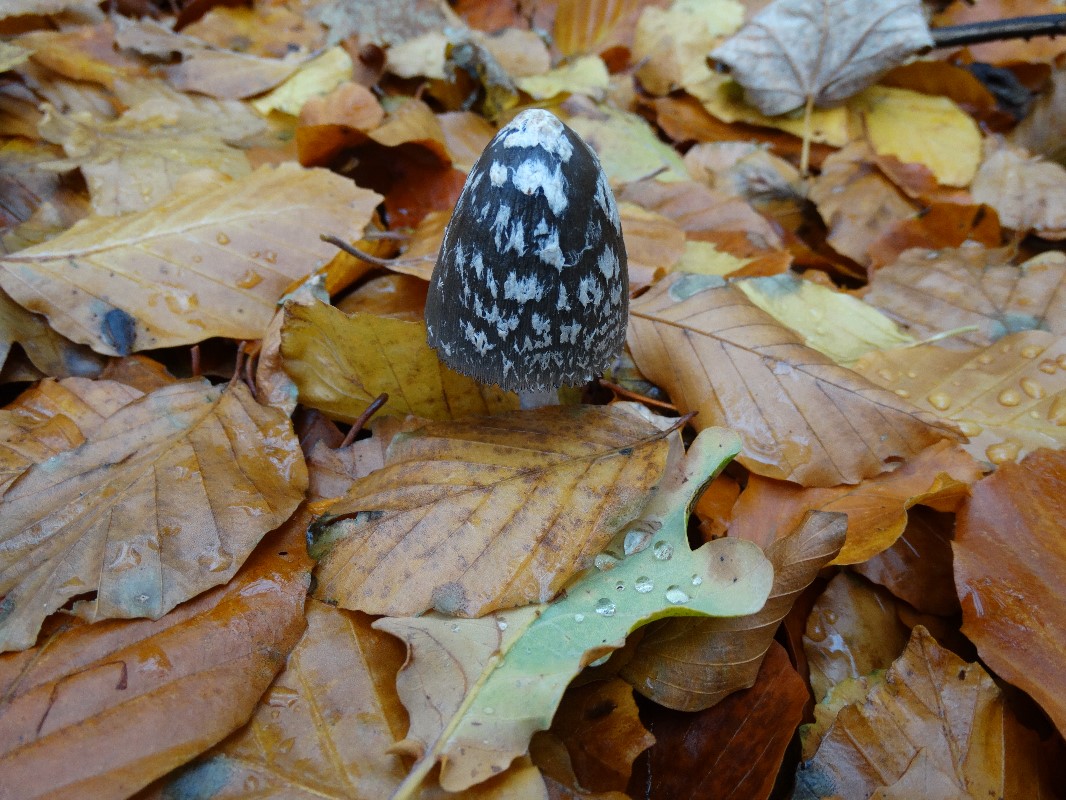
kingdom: Fungi
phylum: Basidiomycota
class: Agaricomycetes
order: Agaricales
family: Psathyrellaceae
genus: Coprinopsis
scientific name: Coprinopsis picacea
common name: skade-blækhat
